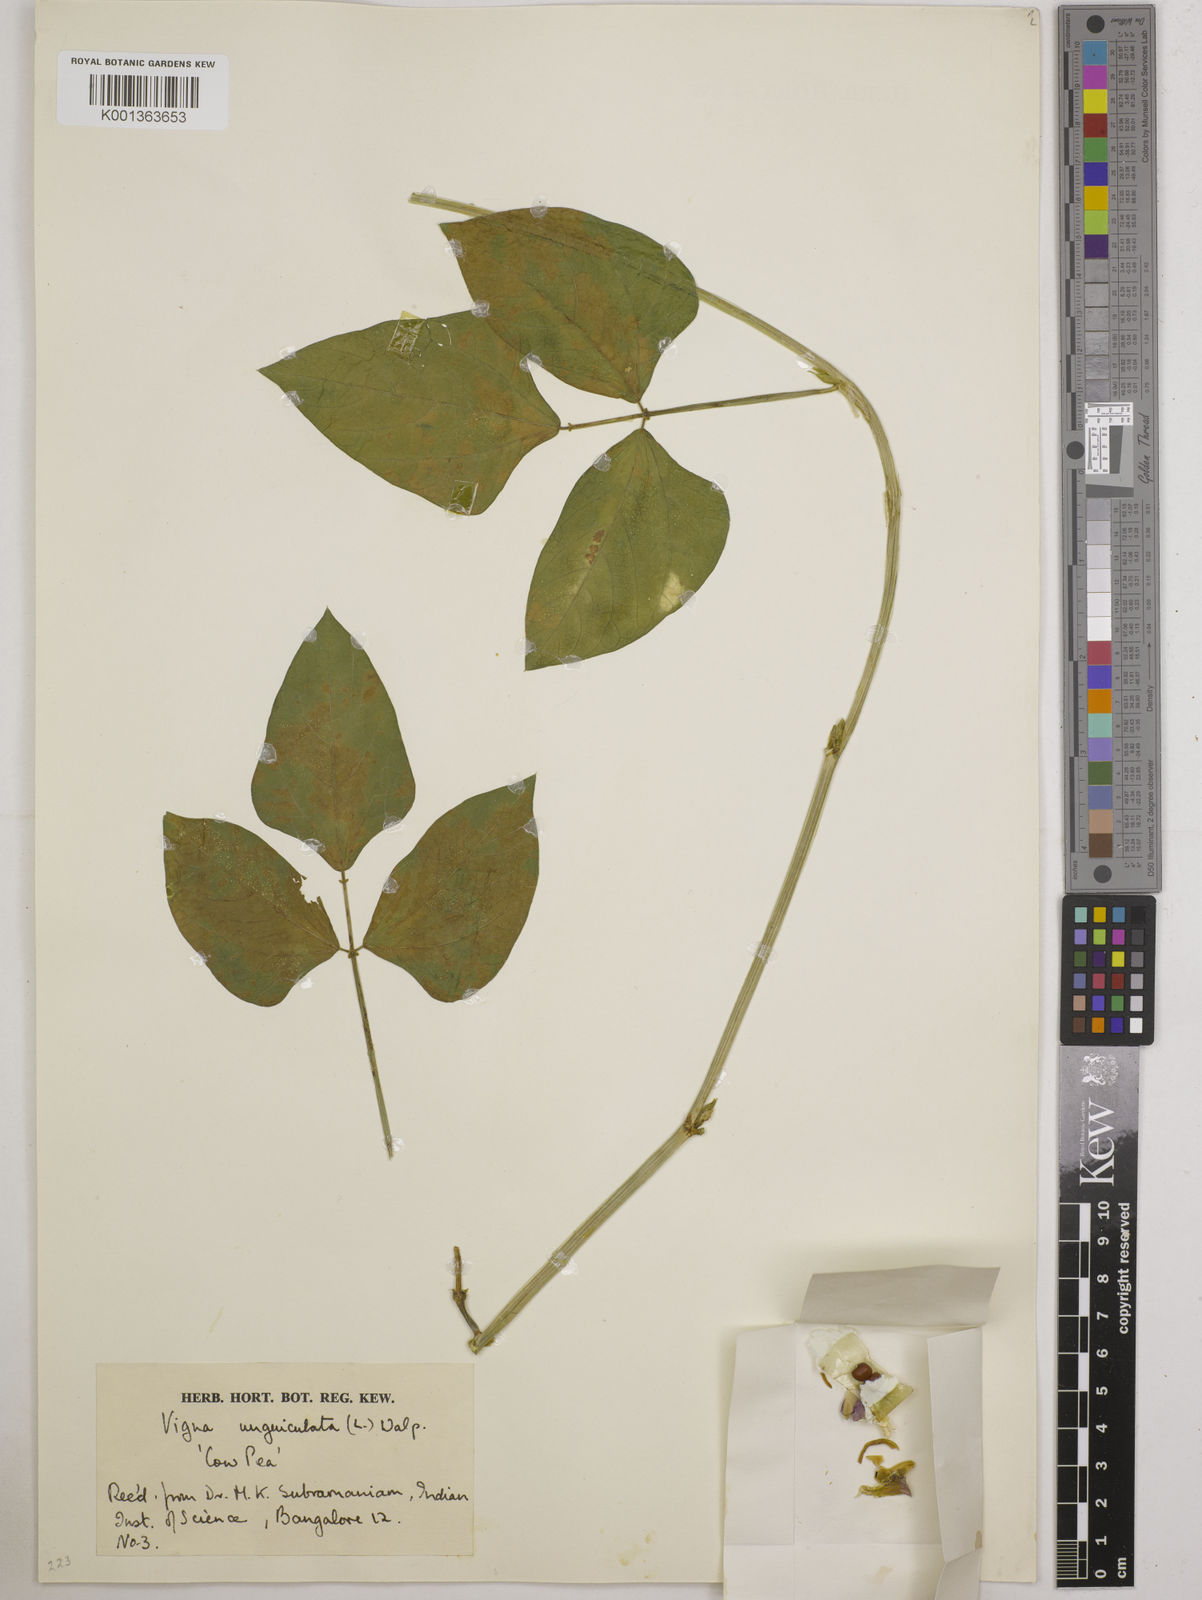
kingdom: Plantae
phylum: Tracheophyta
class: Magnoliopsida
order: Fabales
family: Fabaceae
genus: Vigna
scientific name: Vigna unguiculata
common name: Cowpea
